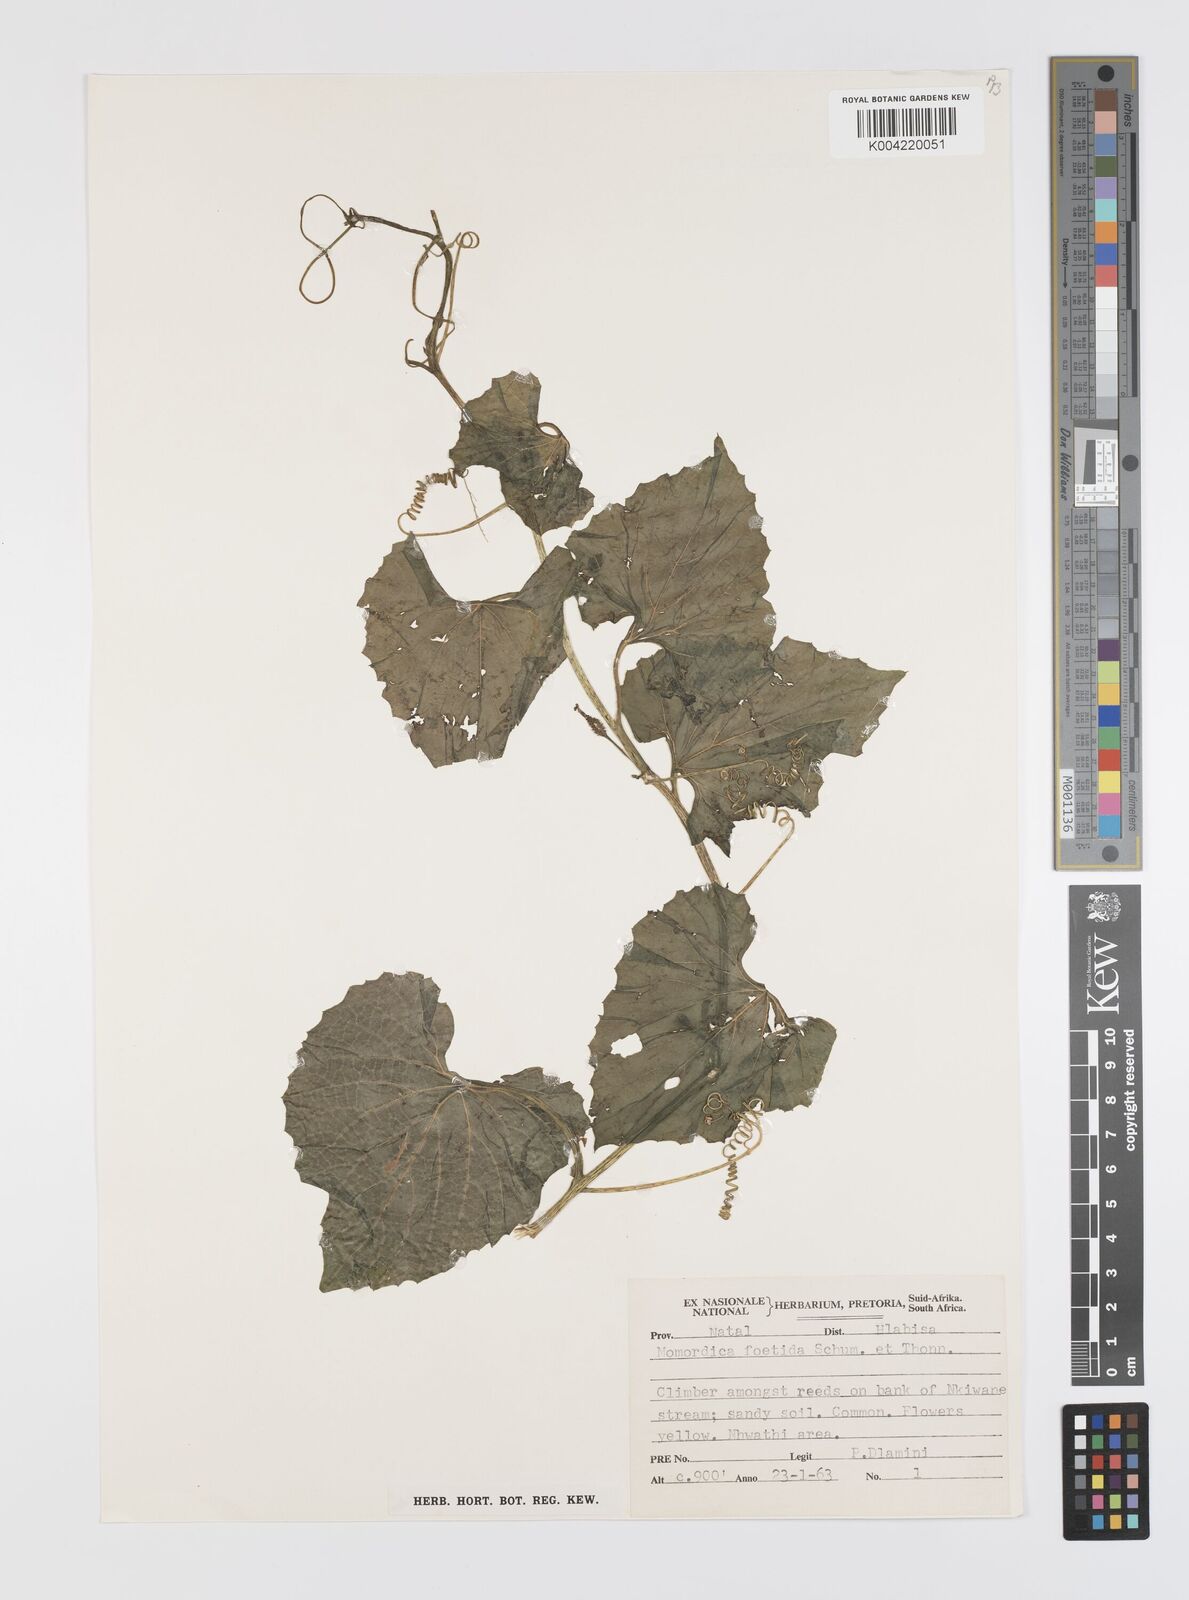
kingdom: Plantae
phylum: Tracheophyta
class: Magnoliopsida
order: Cucurbitales
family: Cucurbitaceae
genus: Momordica
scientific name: Momordica foetida
